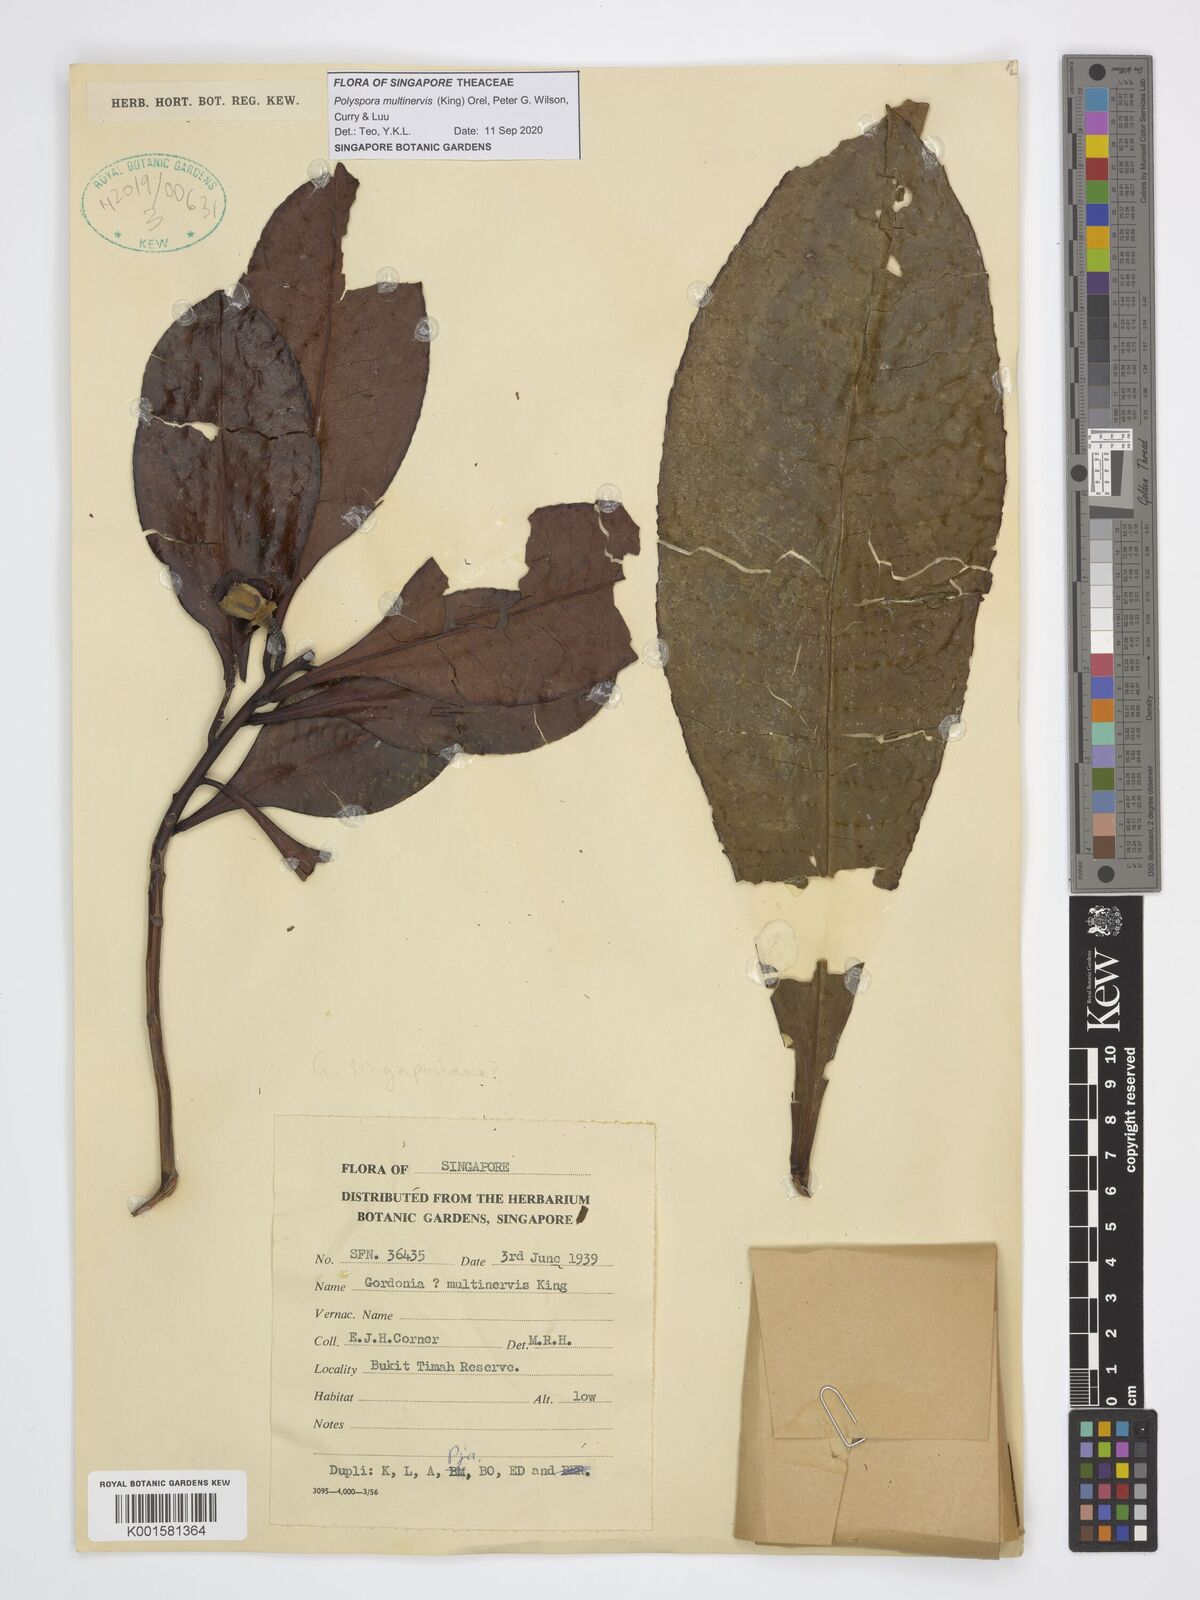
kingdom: Plantae
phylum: Tracheophyta
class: Magnoliopsida
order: Ericales
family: Theaceae
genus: Polyspora
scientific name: Polyspora multinervis
